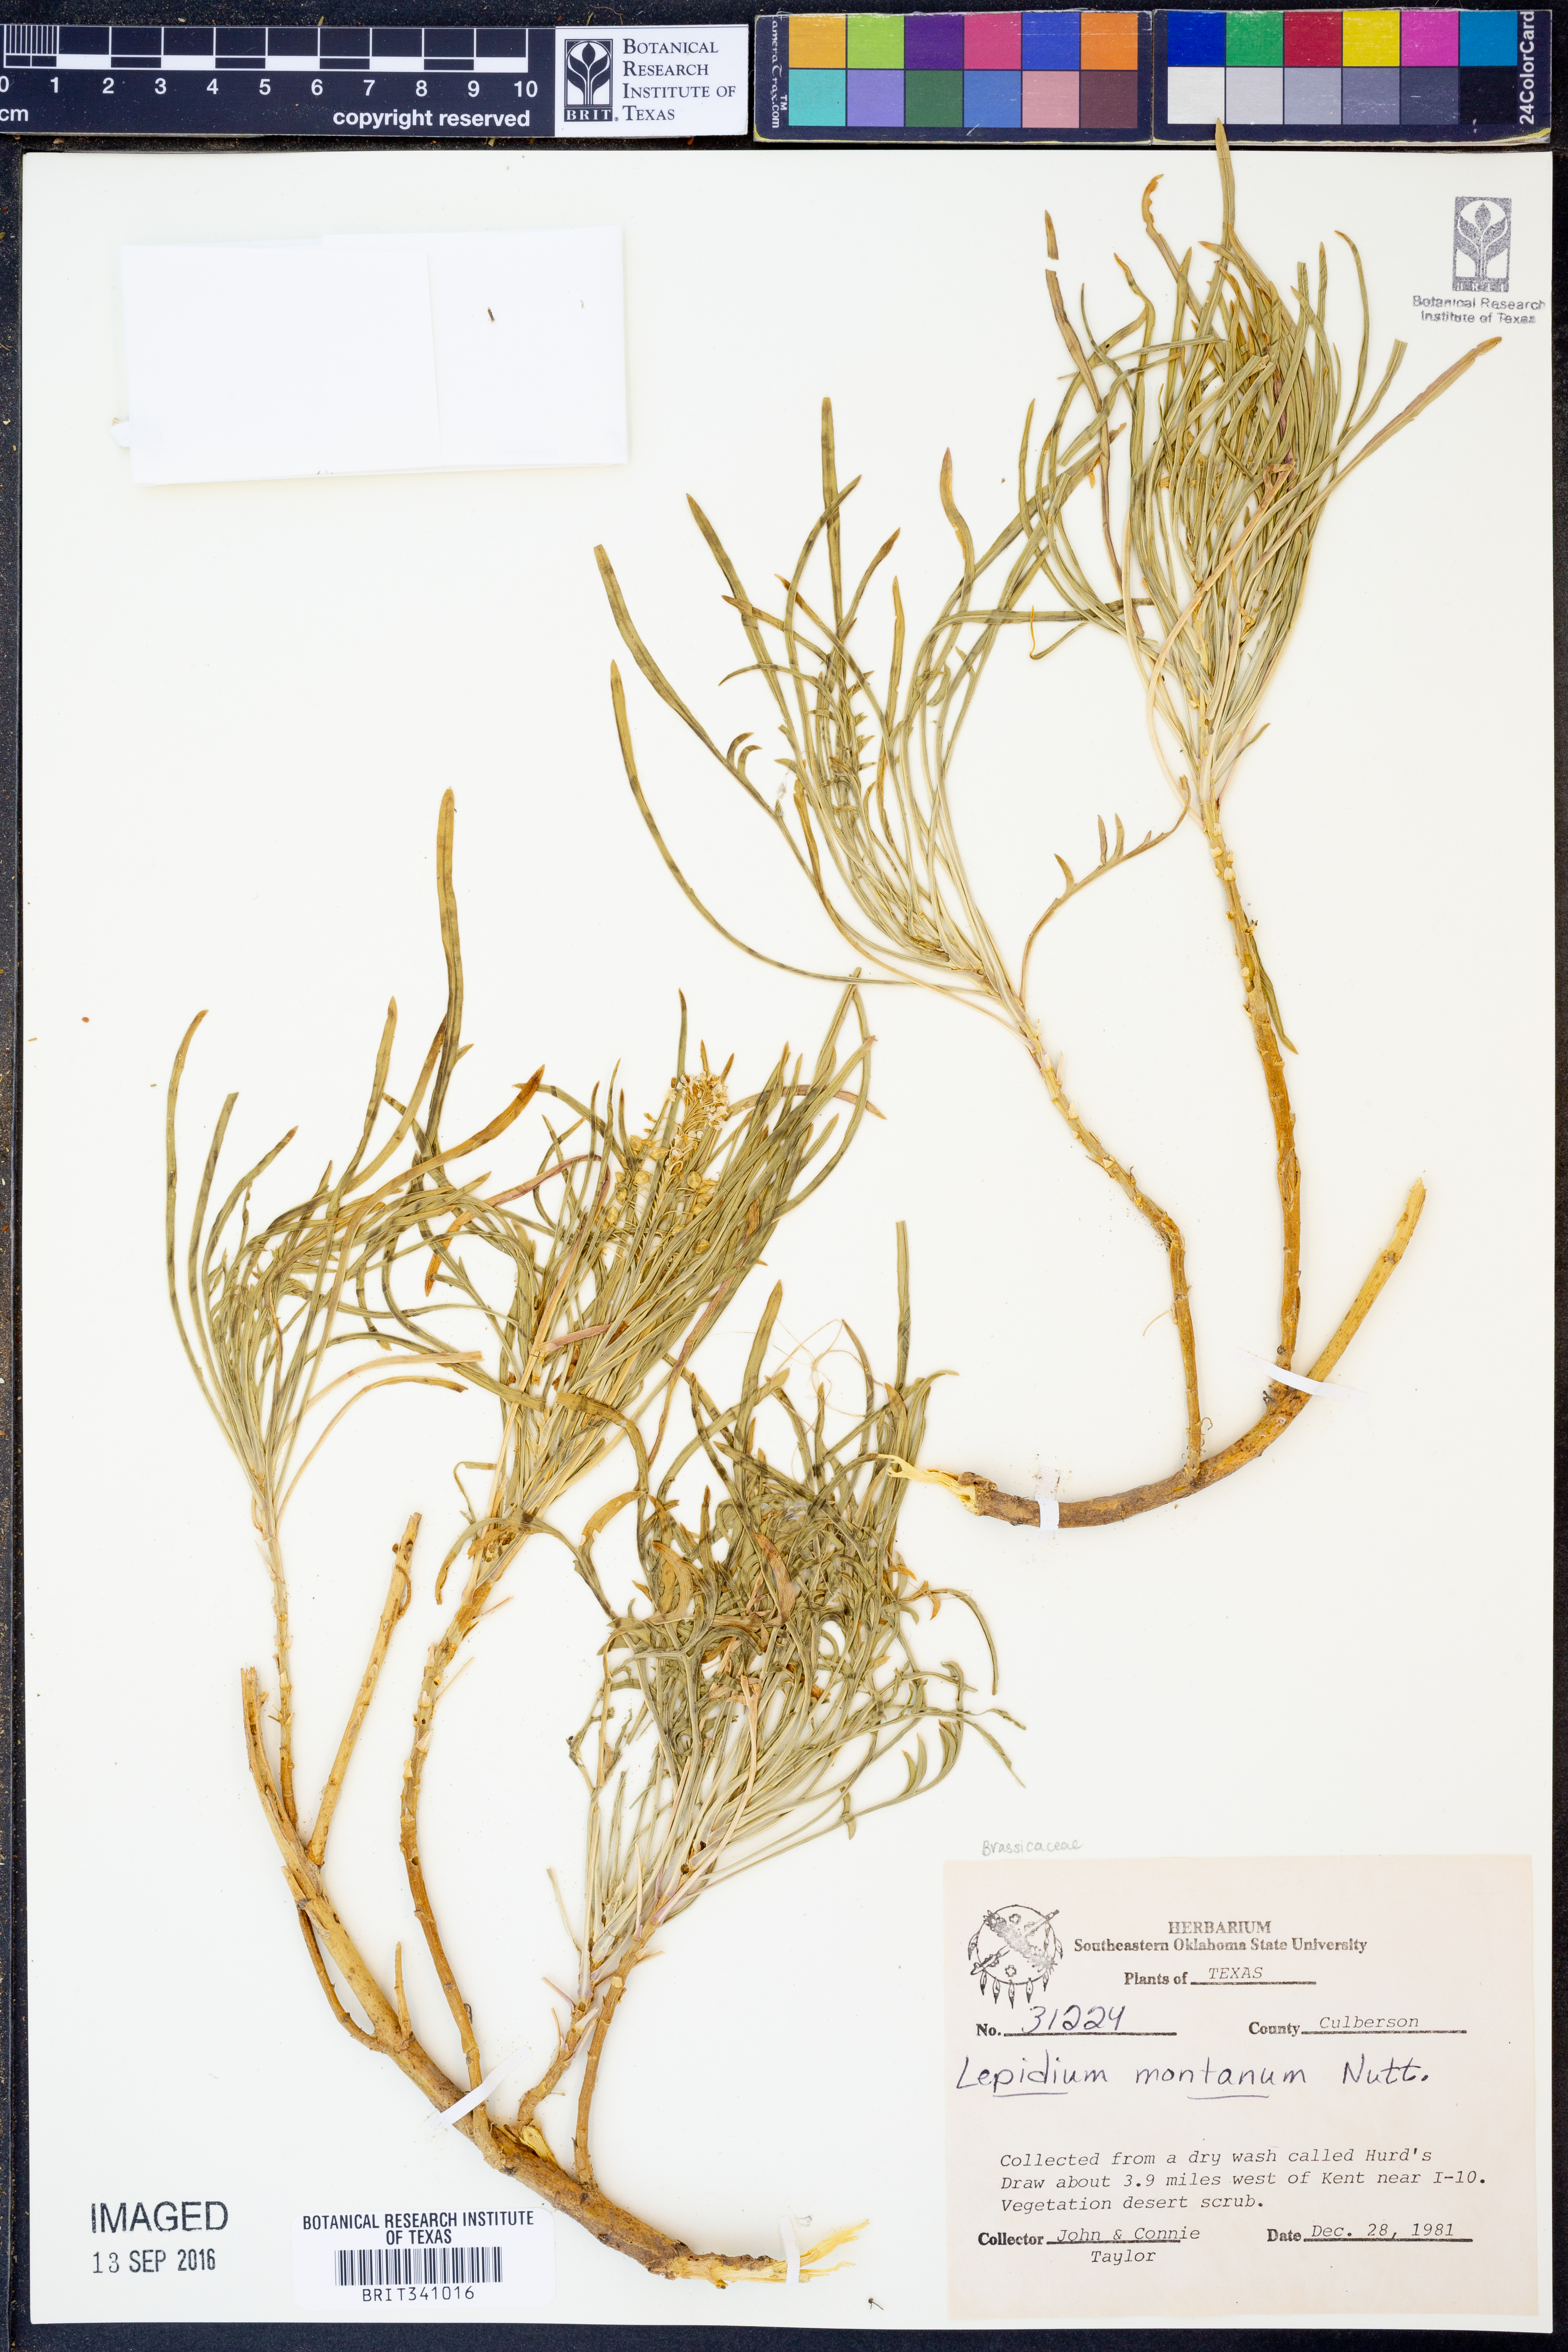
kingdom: Plantae
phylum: Tracheophyta
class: Magnoliopsida
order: Brassicales
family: Brassicaceae
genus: Lepidium
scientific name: Lepidium montanum
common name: Mountain pepperplant
